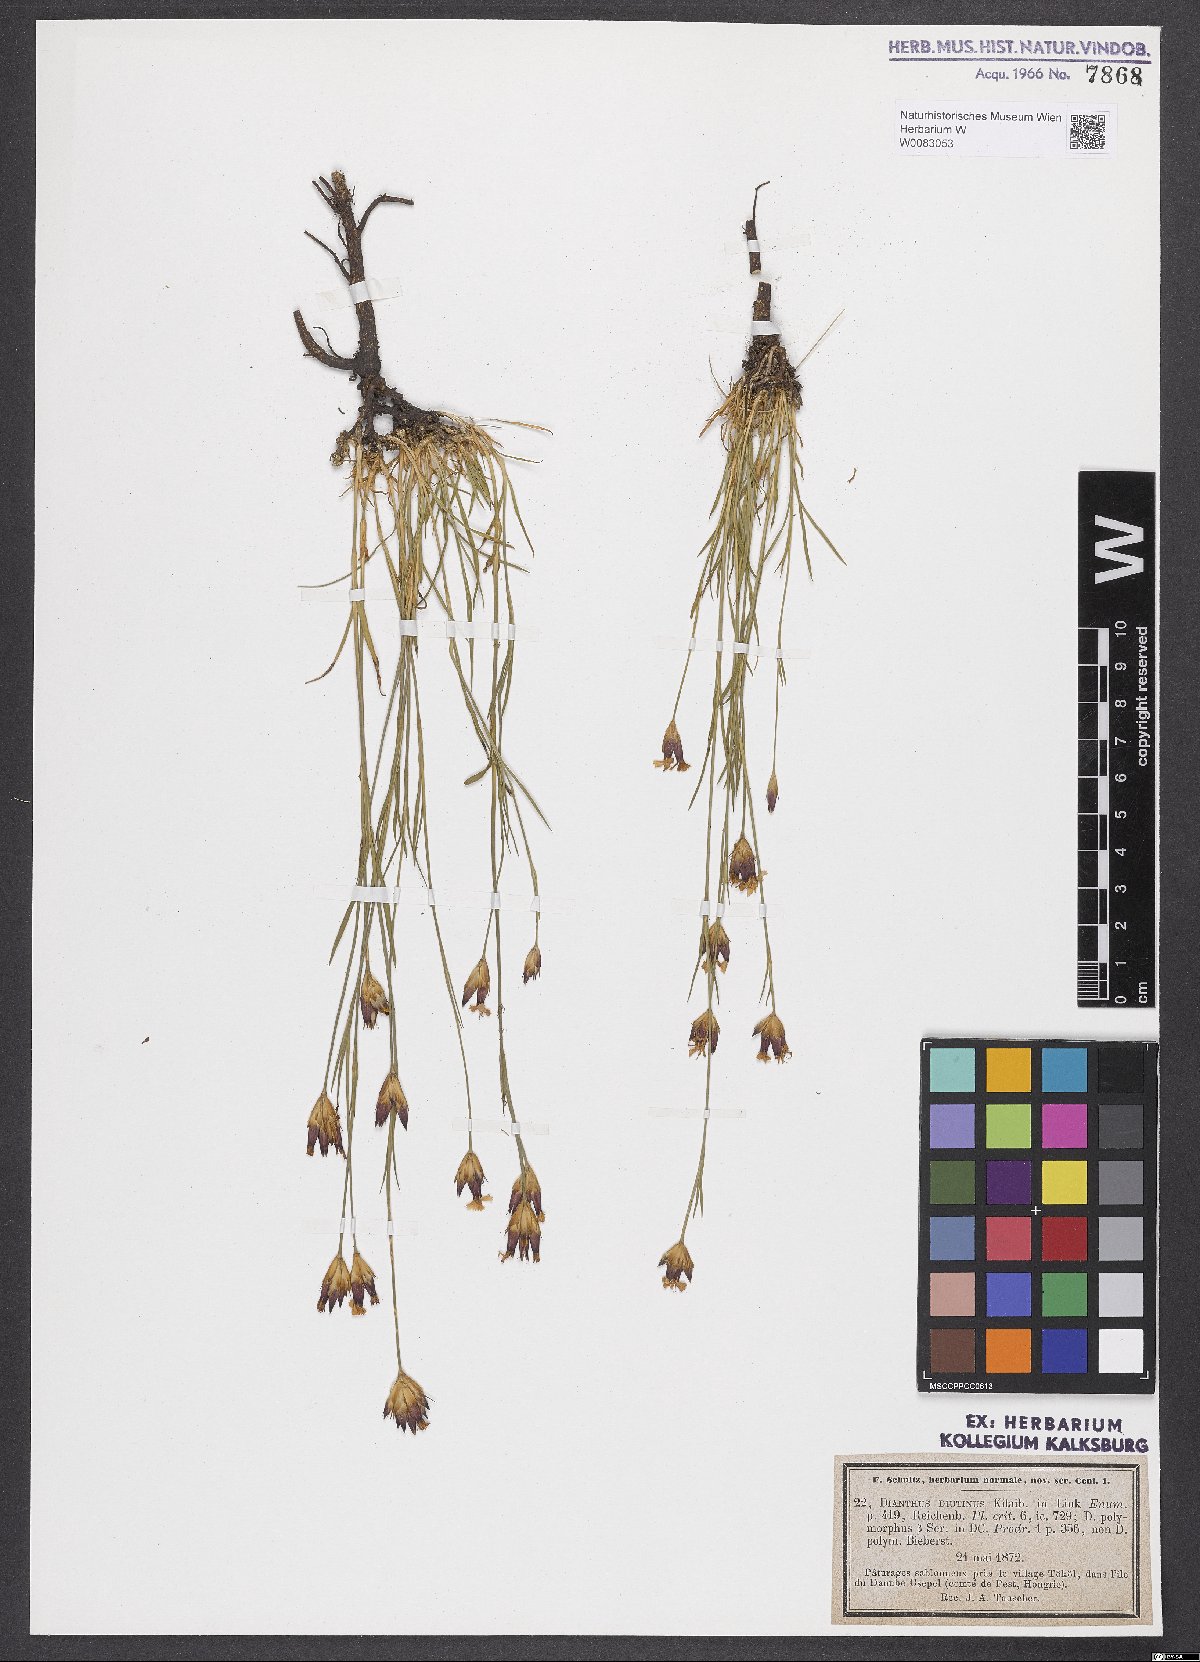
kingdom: Plantae
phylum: Tracheophyta
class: Magnoliopsida
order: Caryophyllales
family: Caryophyllaceae
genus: Dianthus
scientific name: Dianthus polymorphus
